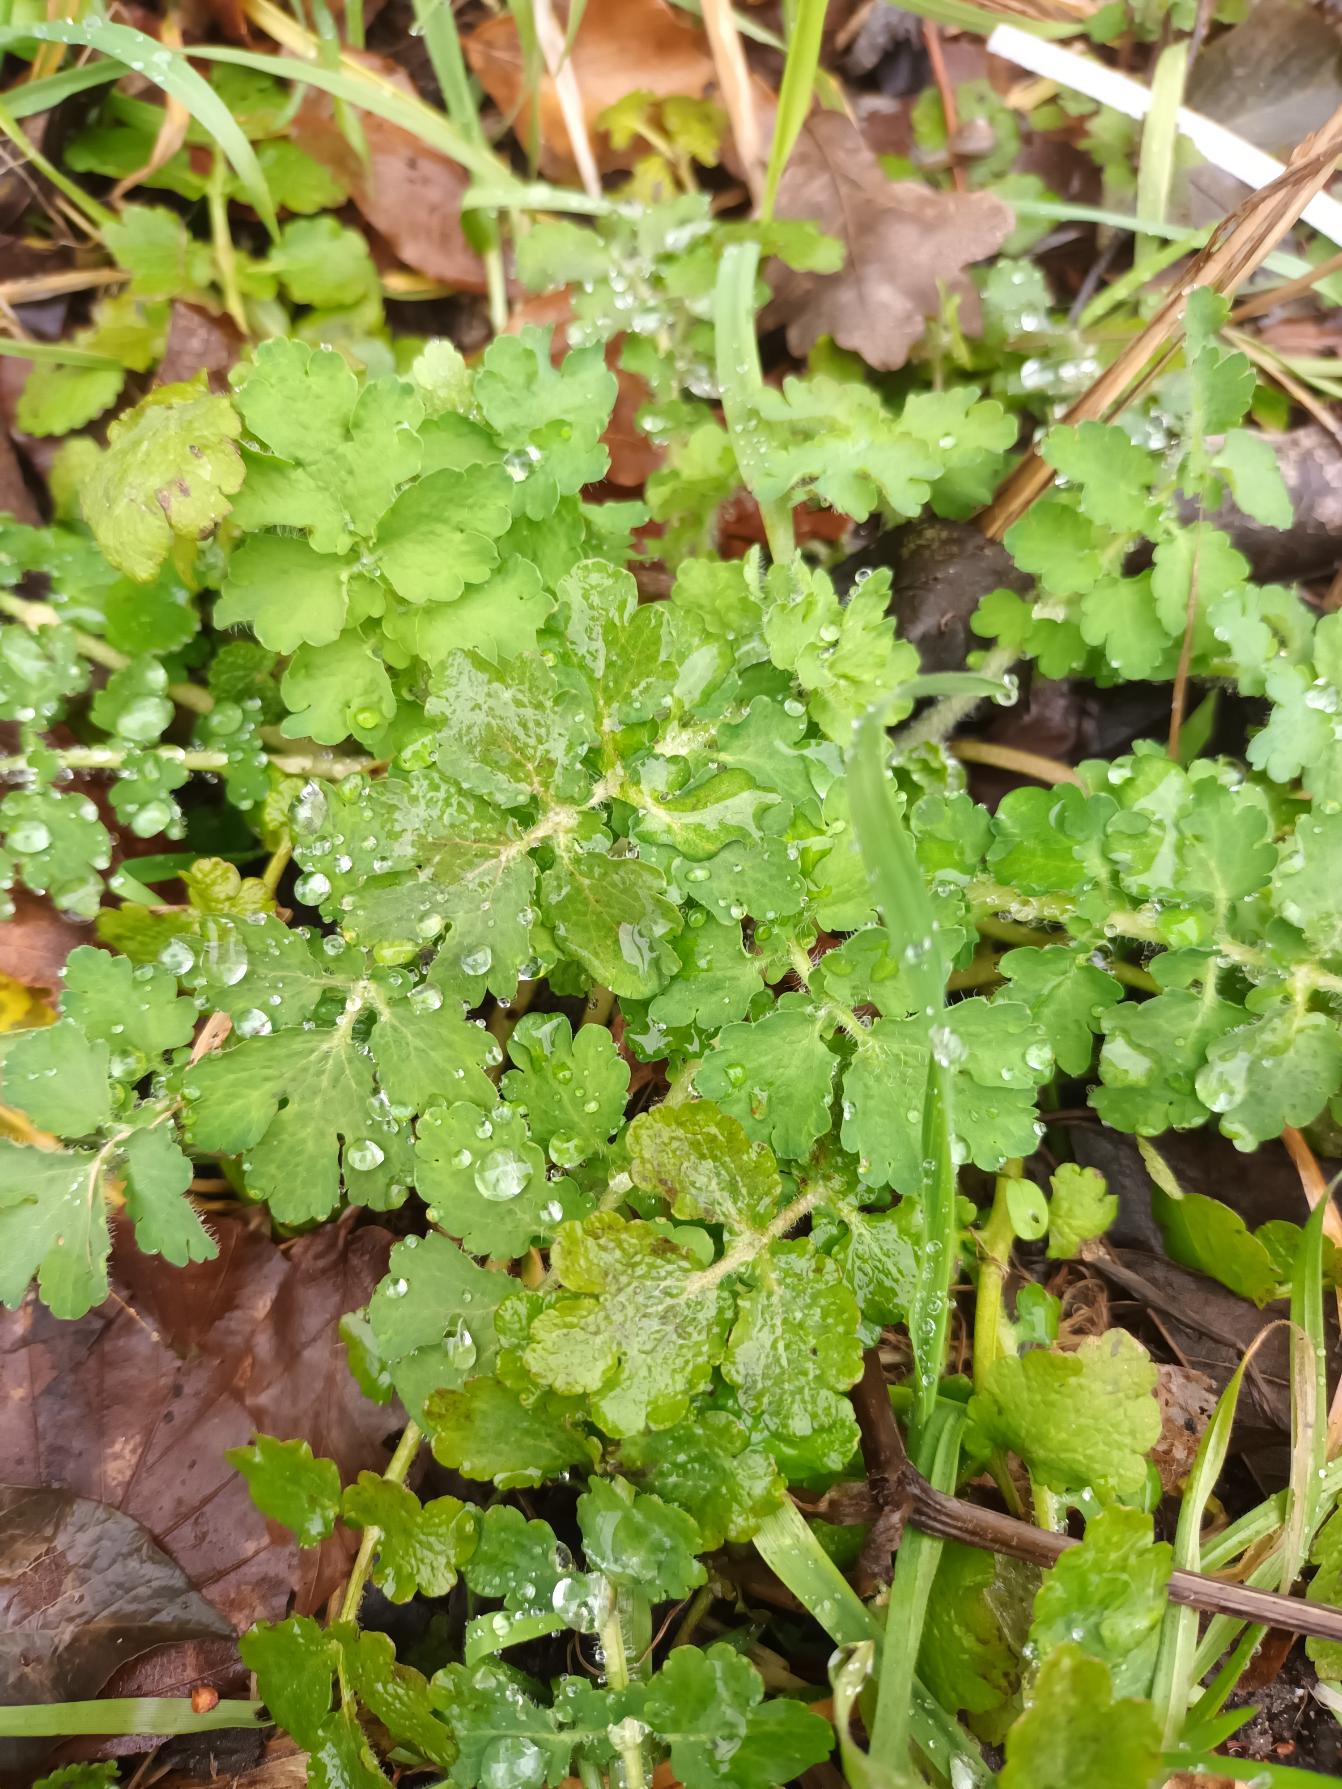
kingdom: Plantae
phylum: Tracheophyta
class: Magnoliopsida
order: Ranunculales
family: Papaveraceae
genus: Chelidonium
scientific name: Chelidonium majus
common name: Svaleurt
